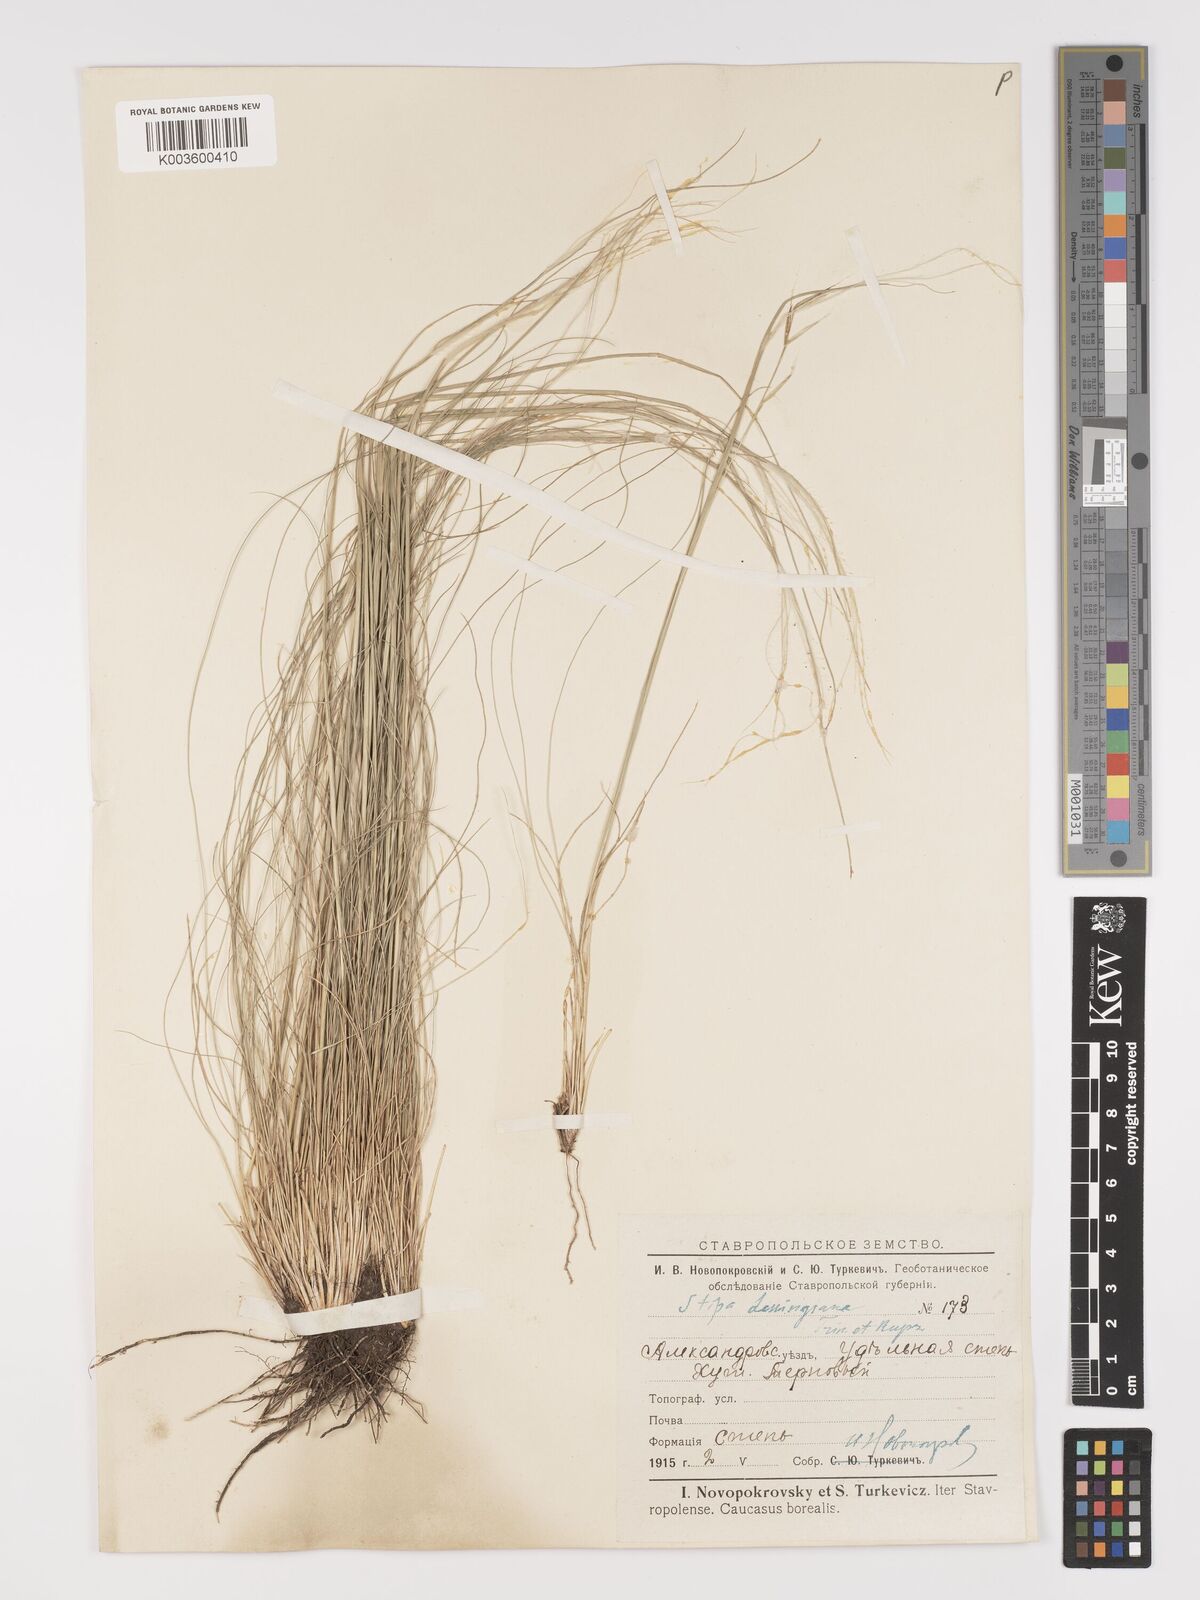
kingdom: Plantae
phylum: Tracheophyta
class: Liliopsida
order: Poales
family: Poaceae
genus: Stipa
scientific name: Stipa lessingiana
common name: Needle grass
